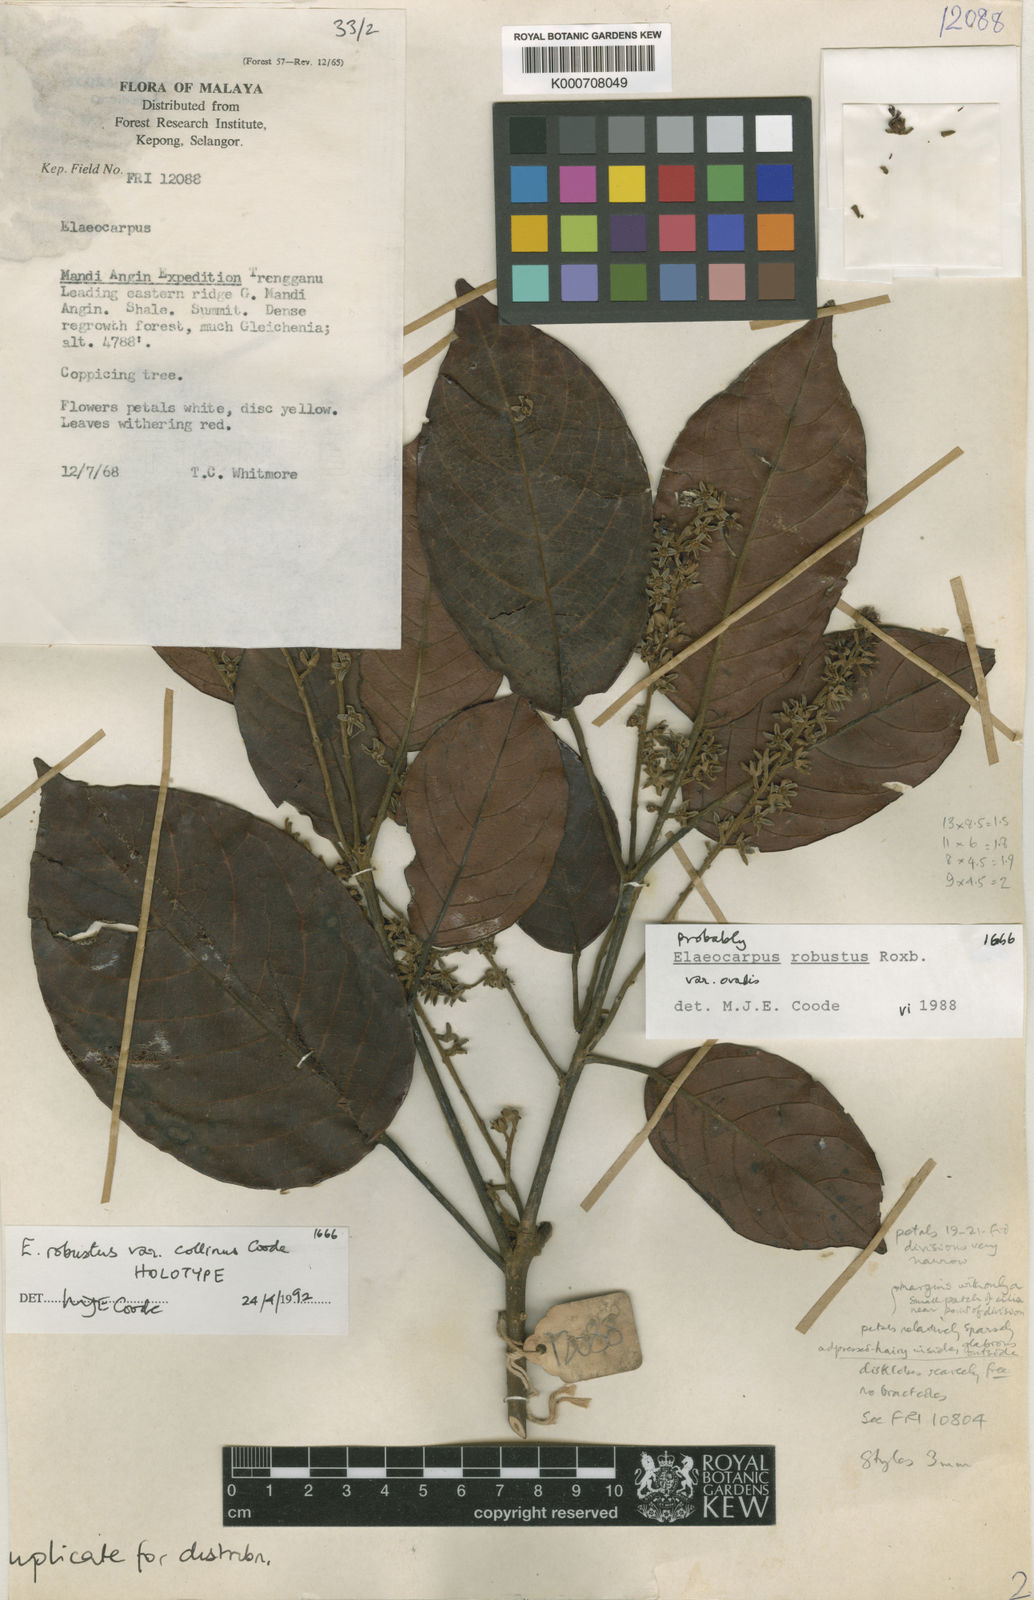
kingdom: Plantae
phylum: Tracheophyta
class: Magnoliopsida
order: Oxalidales
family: Elaeocarpaceae
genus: Elaeocarpus
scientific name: Elaeocarpus robustus
